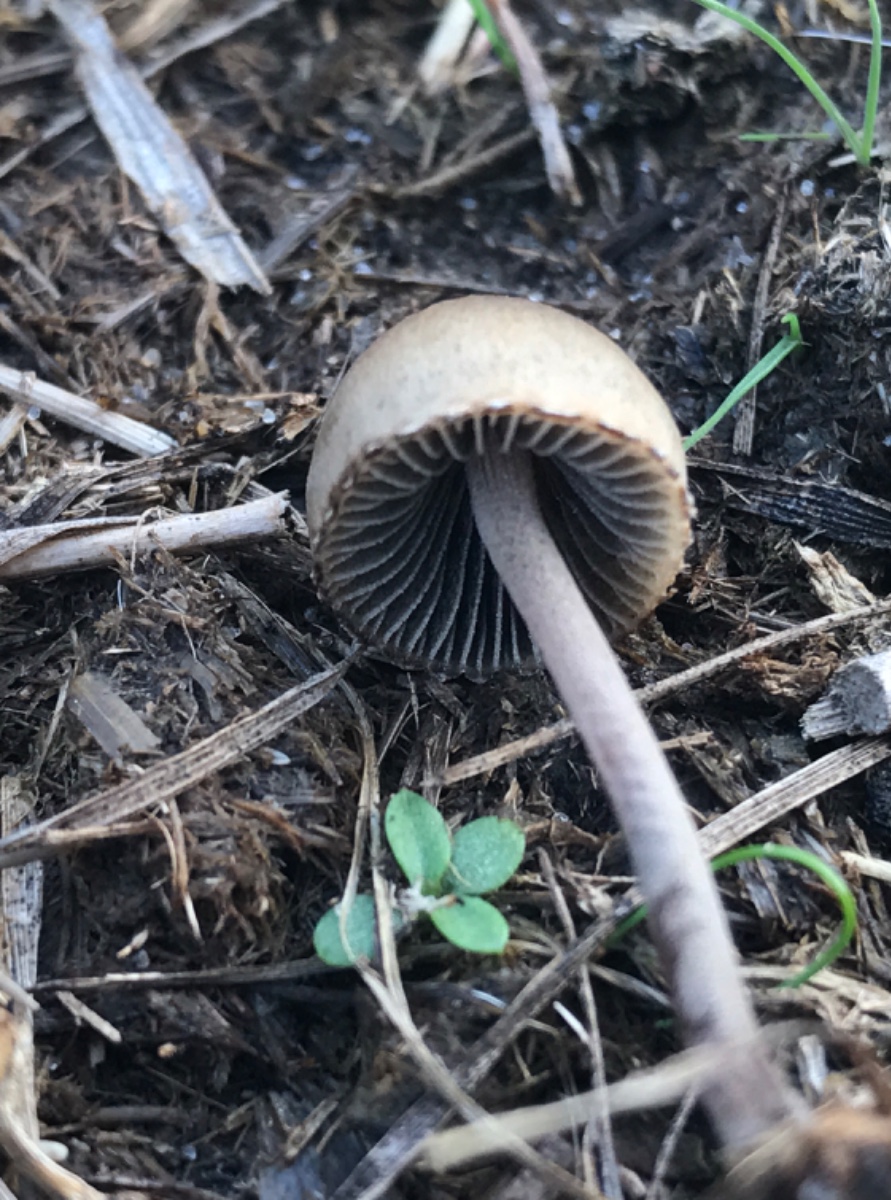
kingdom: Fungi
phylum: Basidiomycota
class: Agaricomycetes
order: Agaricales
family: Bolbitiaceae
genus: Panaeolus
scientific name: Panaeolus papilionaceus
